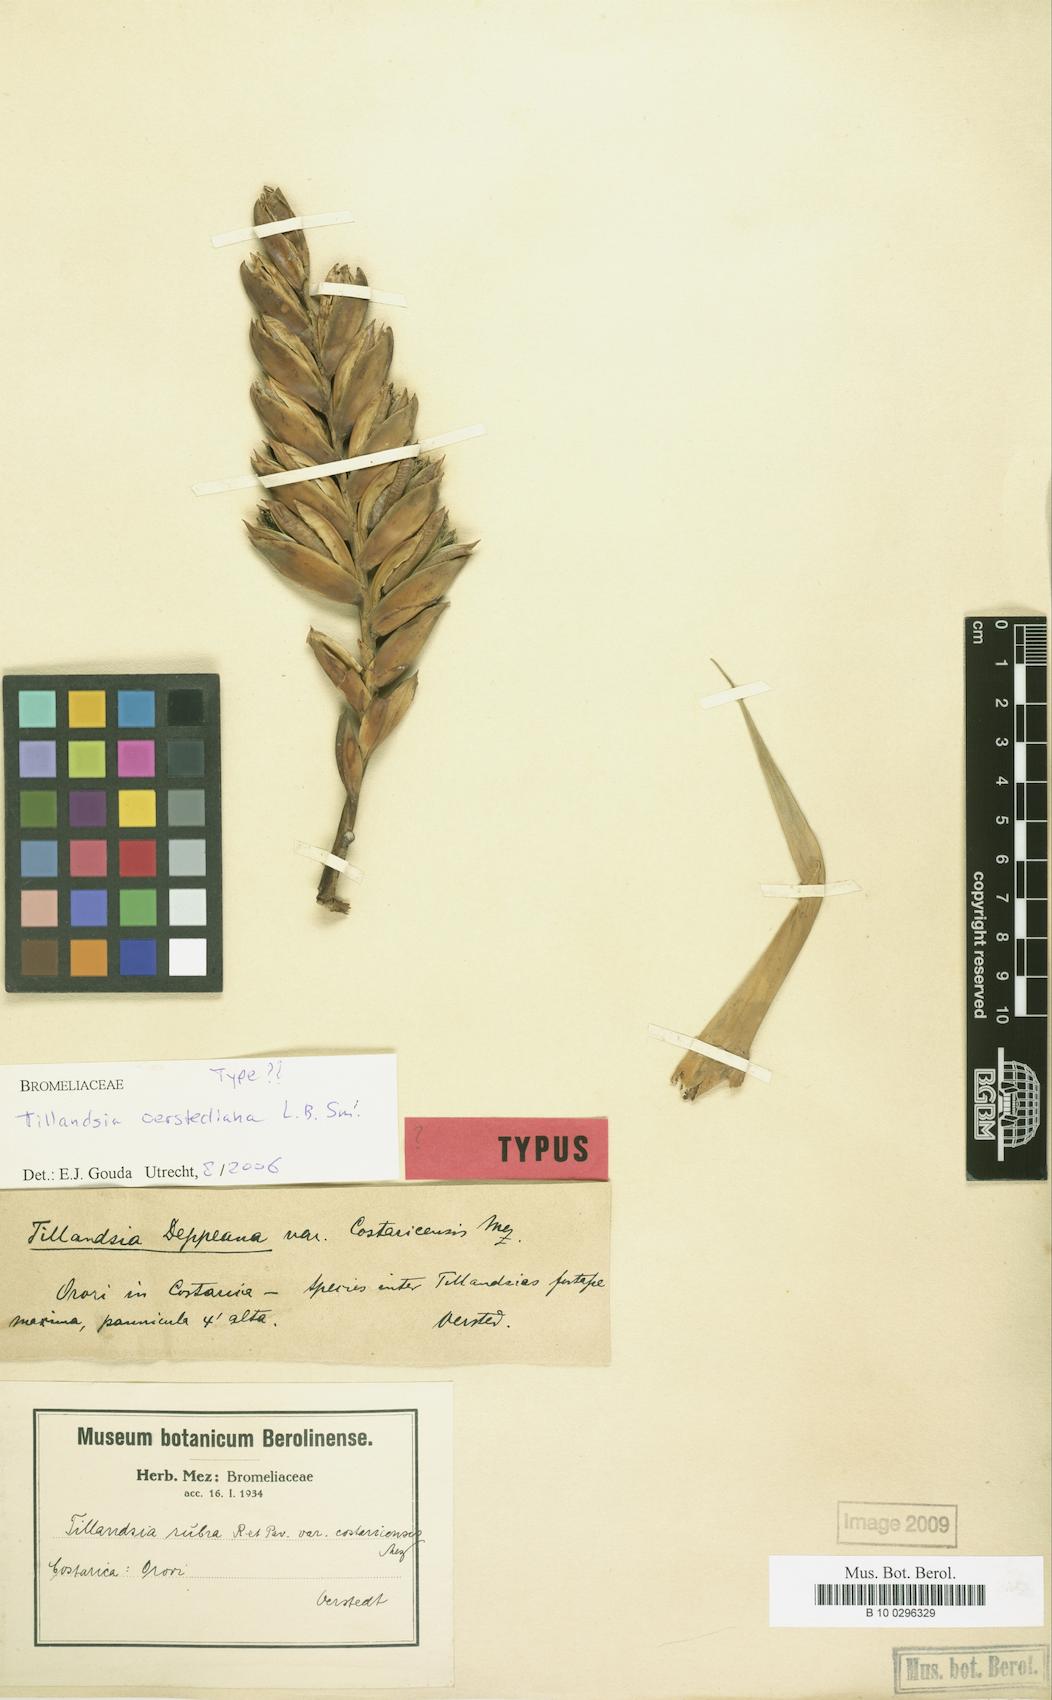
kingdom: Plantae
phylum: Tracheophyta
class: Liliopsida
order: Poales
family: Bromeliaceae
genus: Tillandsia
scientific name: Tillandsia oerstediana
